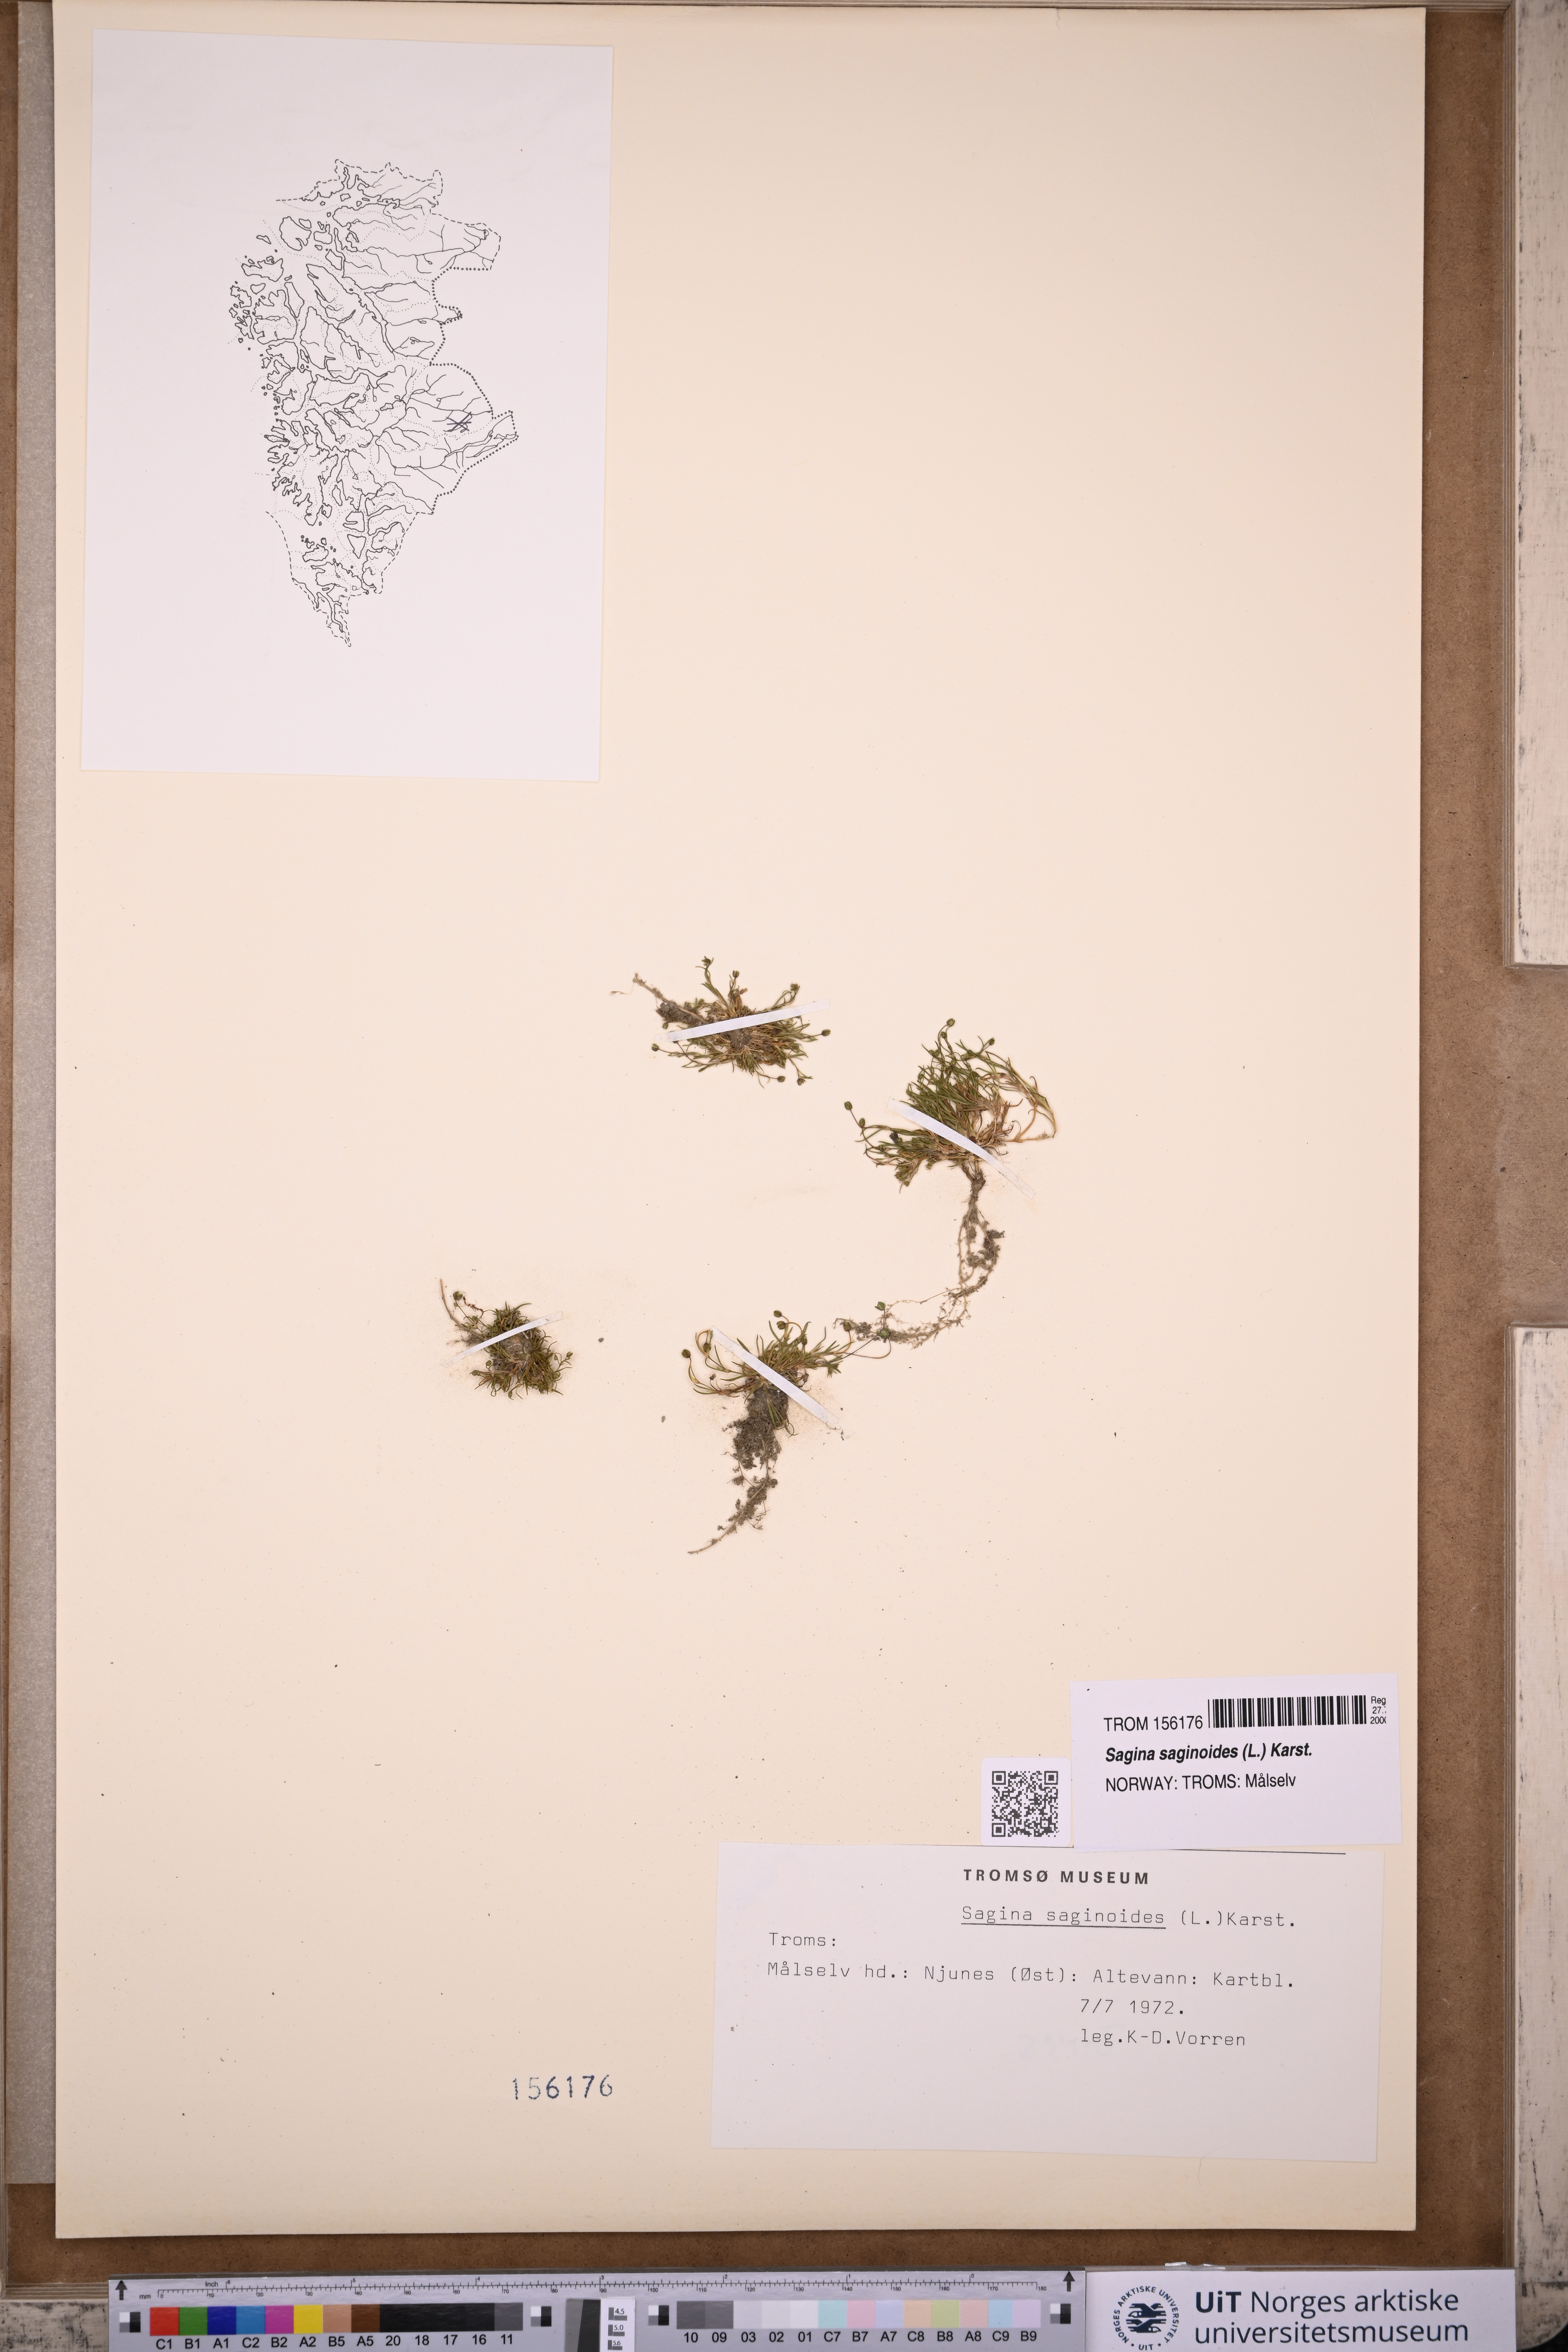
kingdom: Plantae
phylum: Tracheophyta
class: Magnoliopsida
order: Caryophyllales
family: Caryophyllaceae
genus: Sagina
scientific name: Sagina saginoides
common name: Alpine pearlwort
